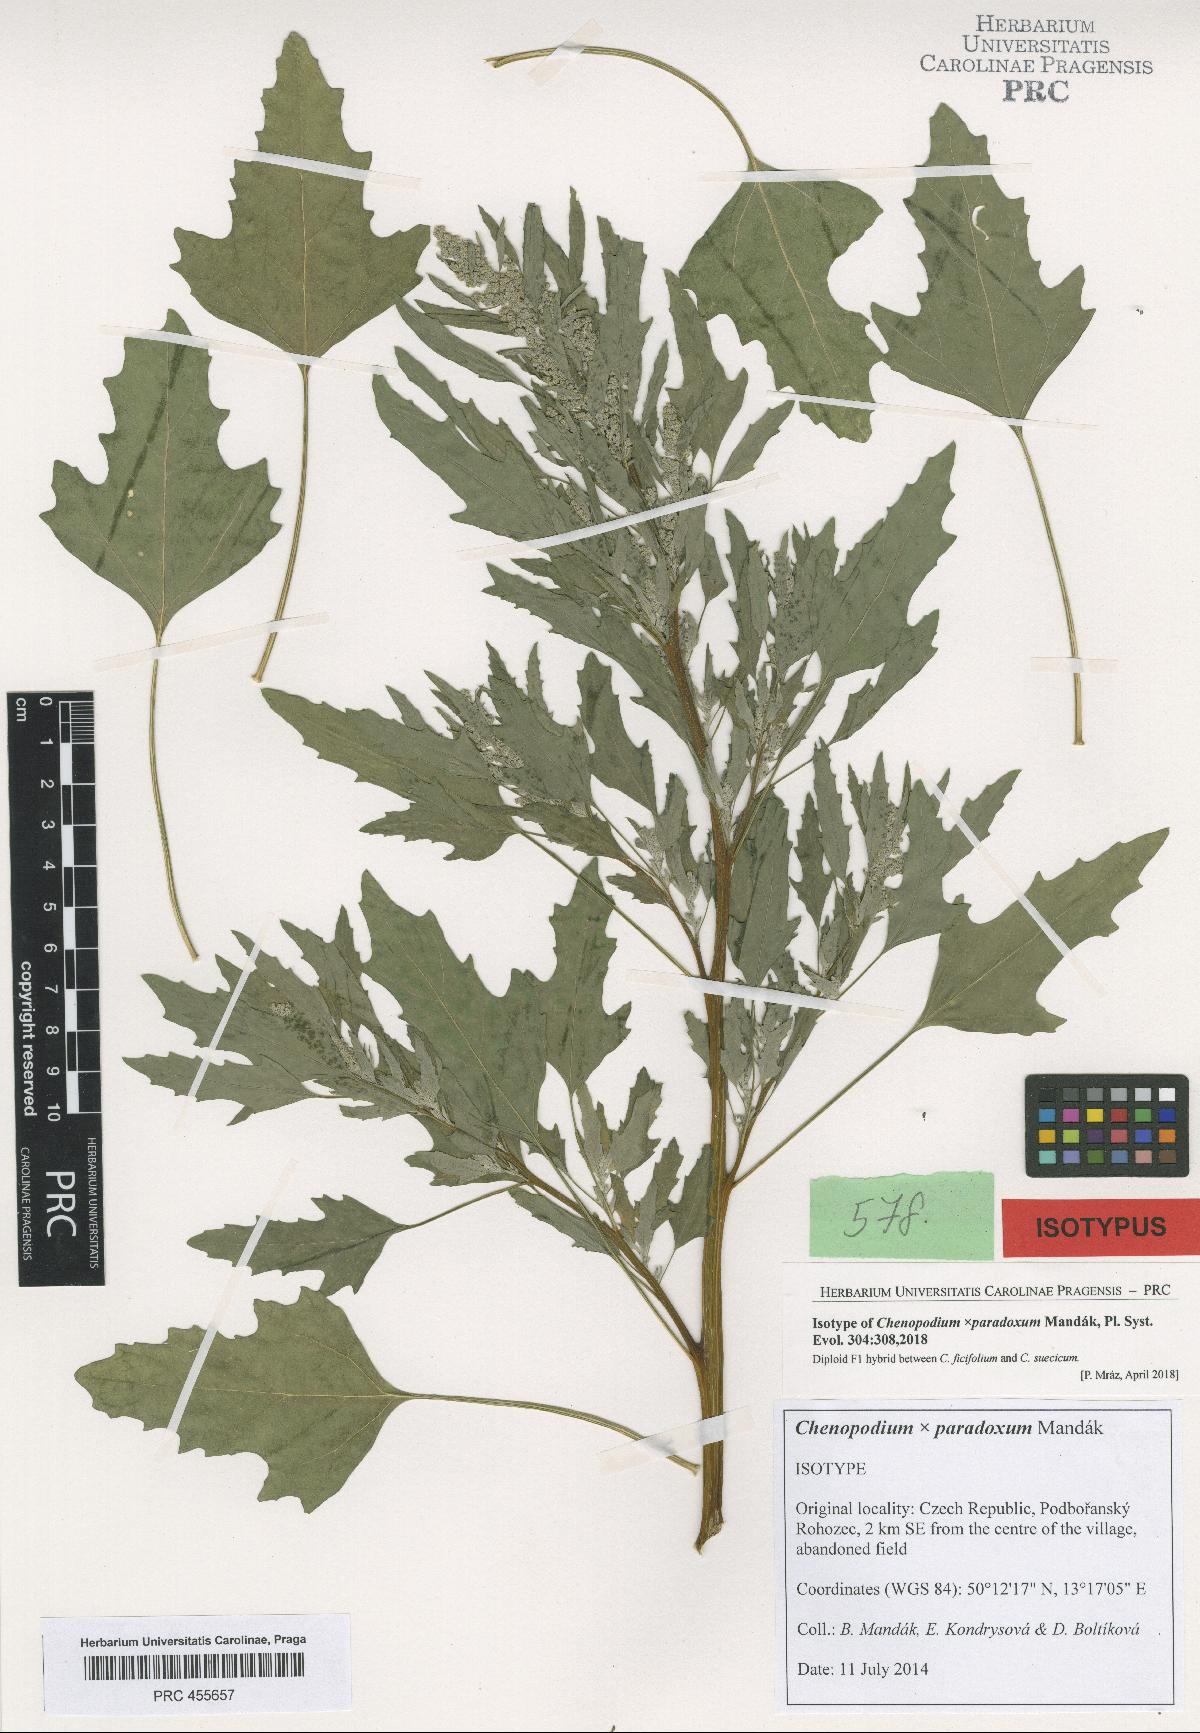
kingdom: Plantae
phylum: Tracheophyta
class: Magnoliopsida
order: Caryophyllales
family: Amaranthaceae
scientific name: Amaranthaceae
